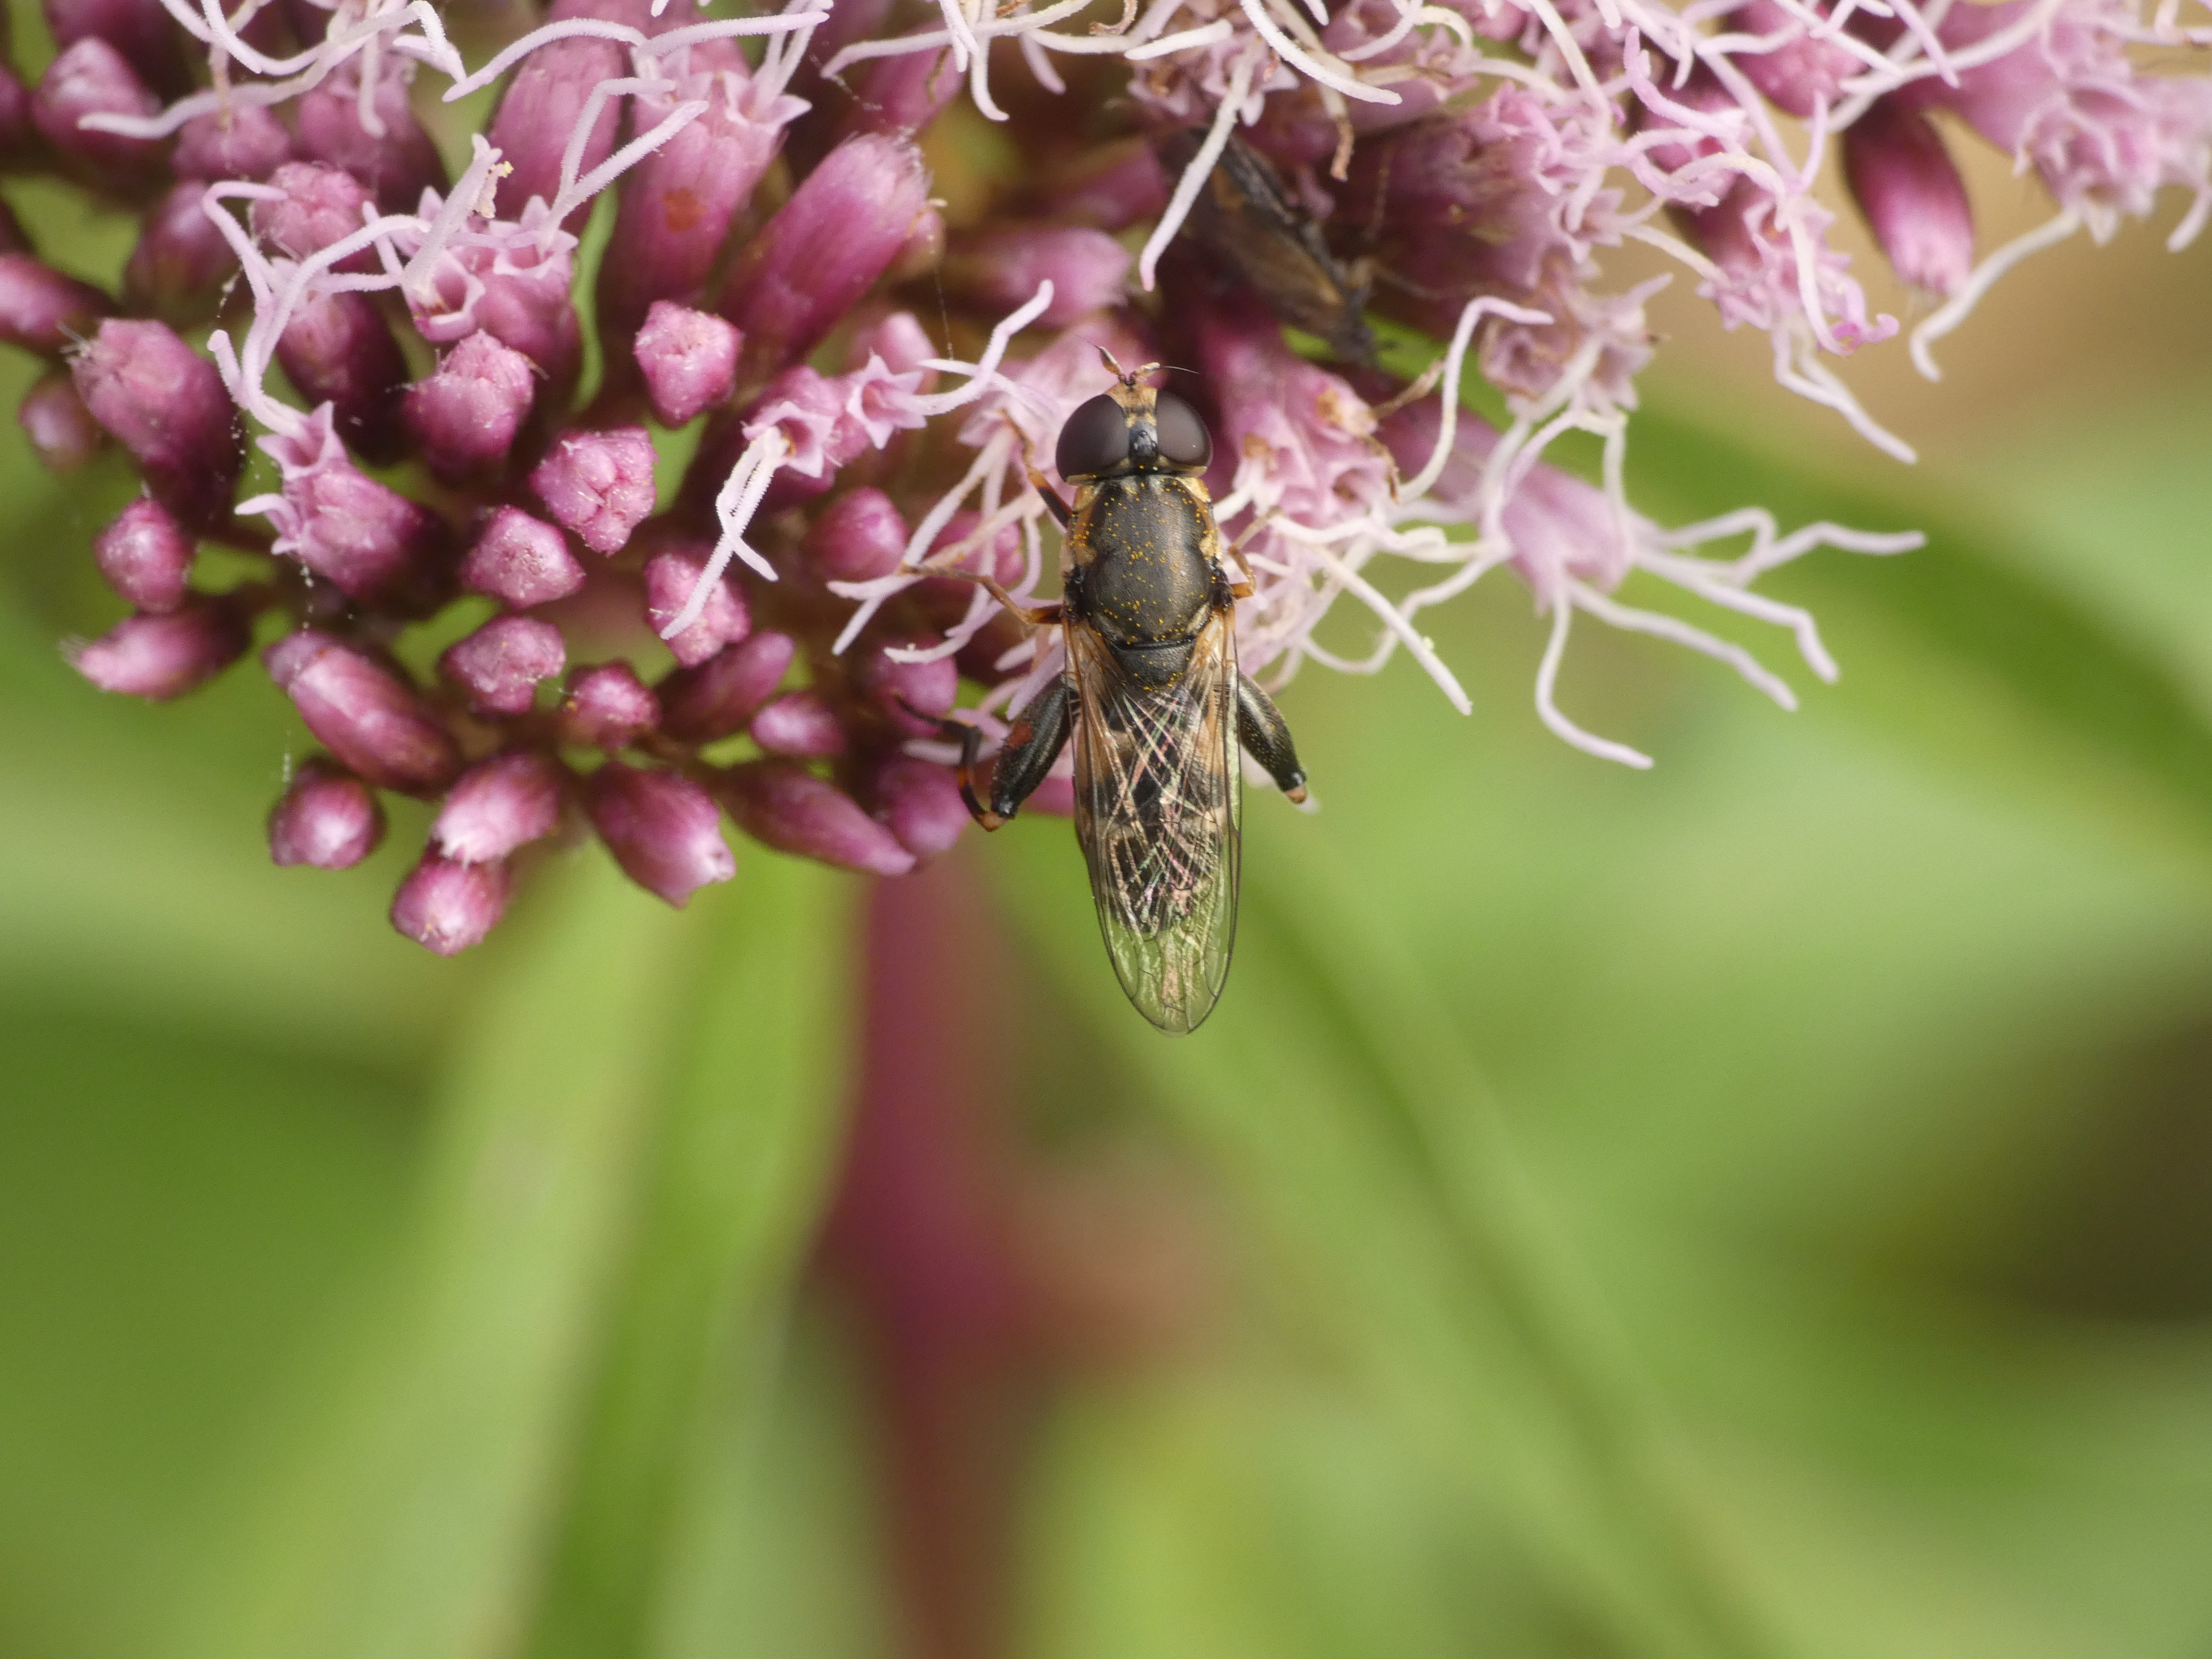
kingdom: Animalia
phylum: Arthropoda
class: Insecta
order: Diptera
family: Syrphidae
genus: Syritta
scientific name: Syritta pipiens
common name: Kompost-svirreflue
